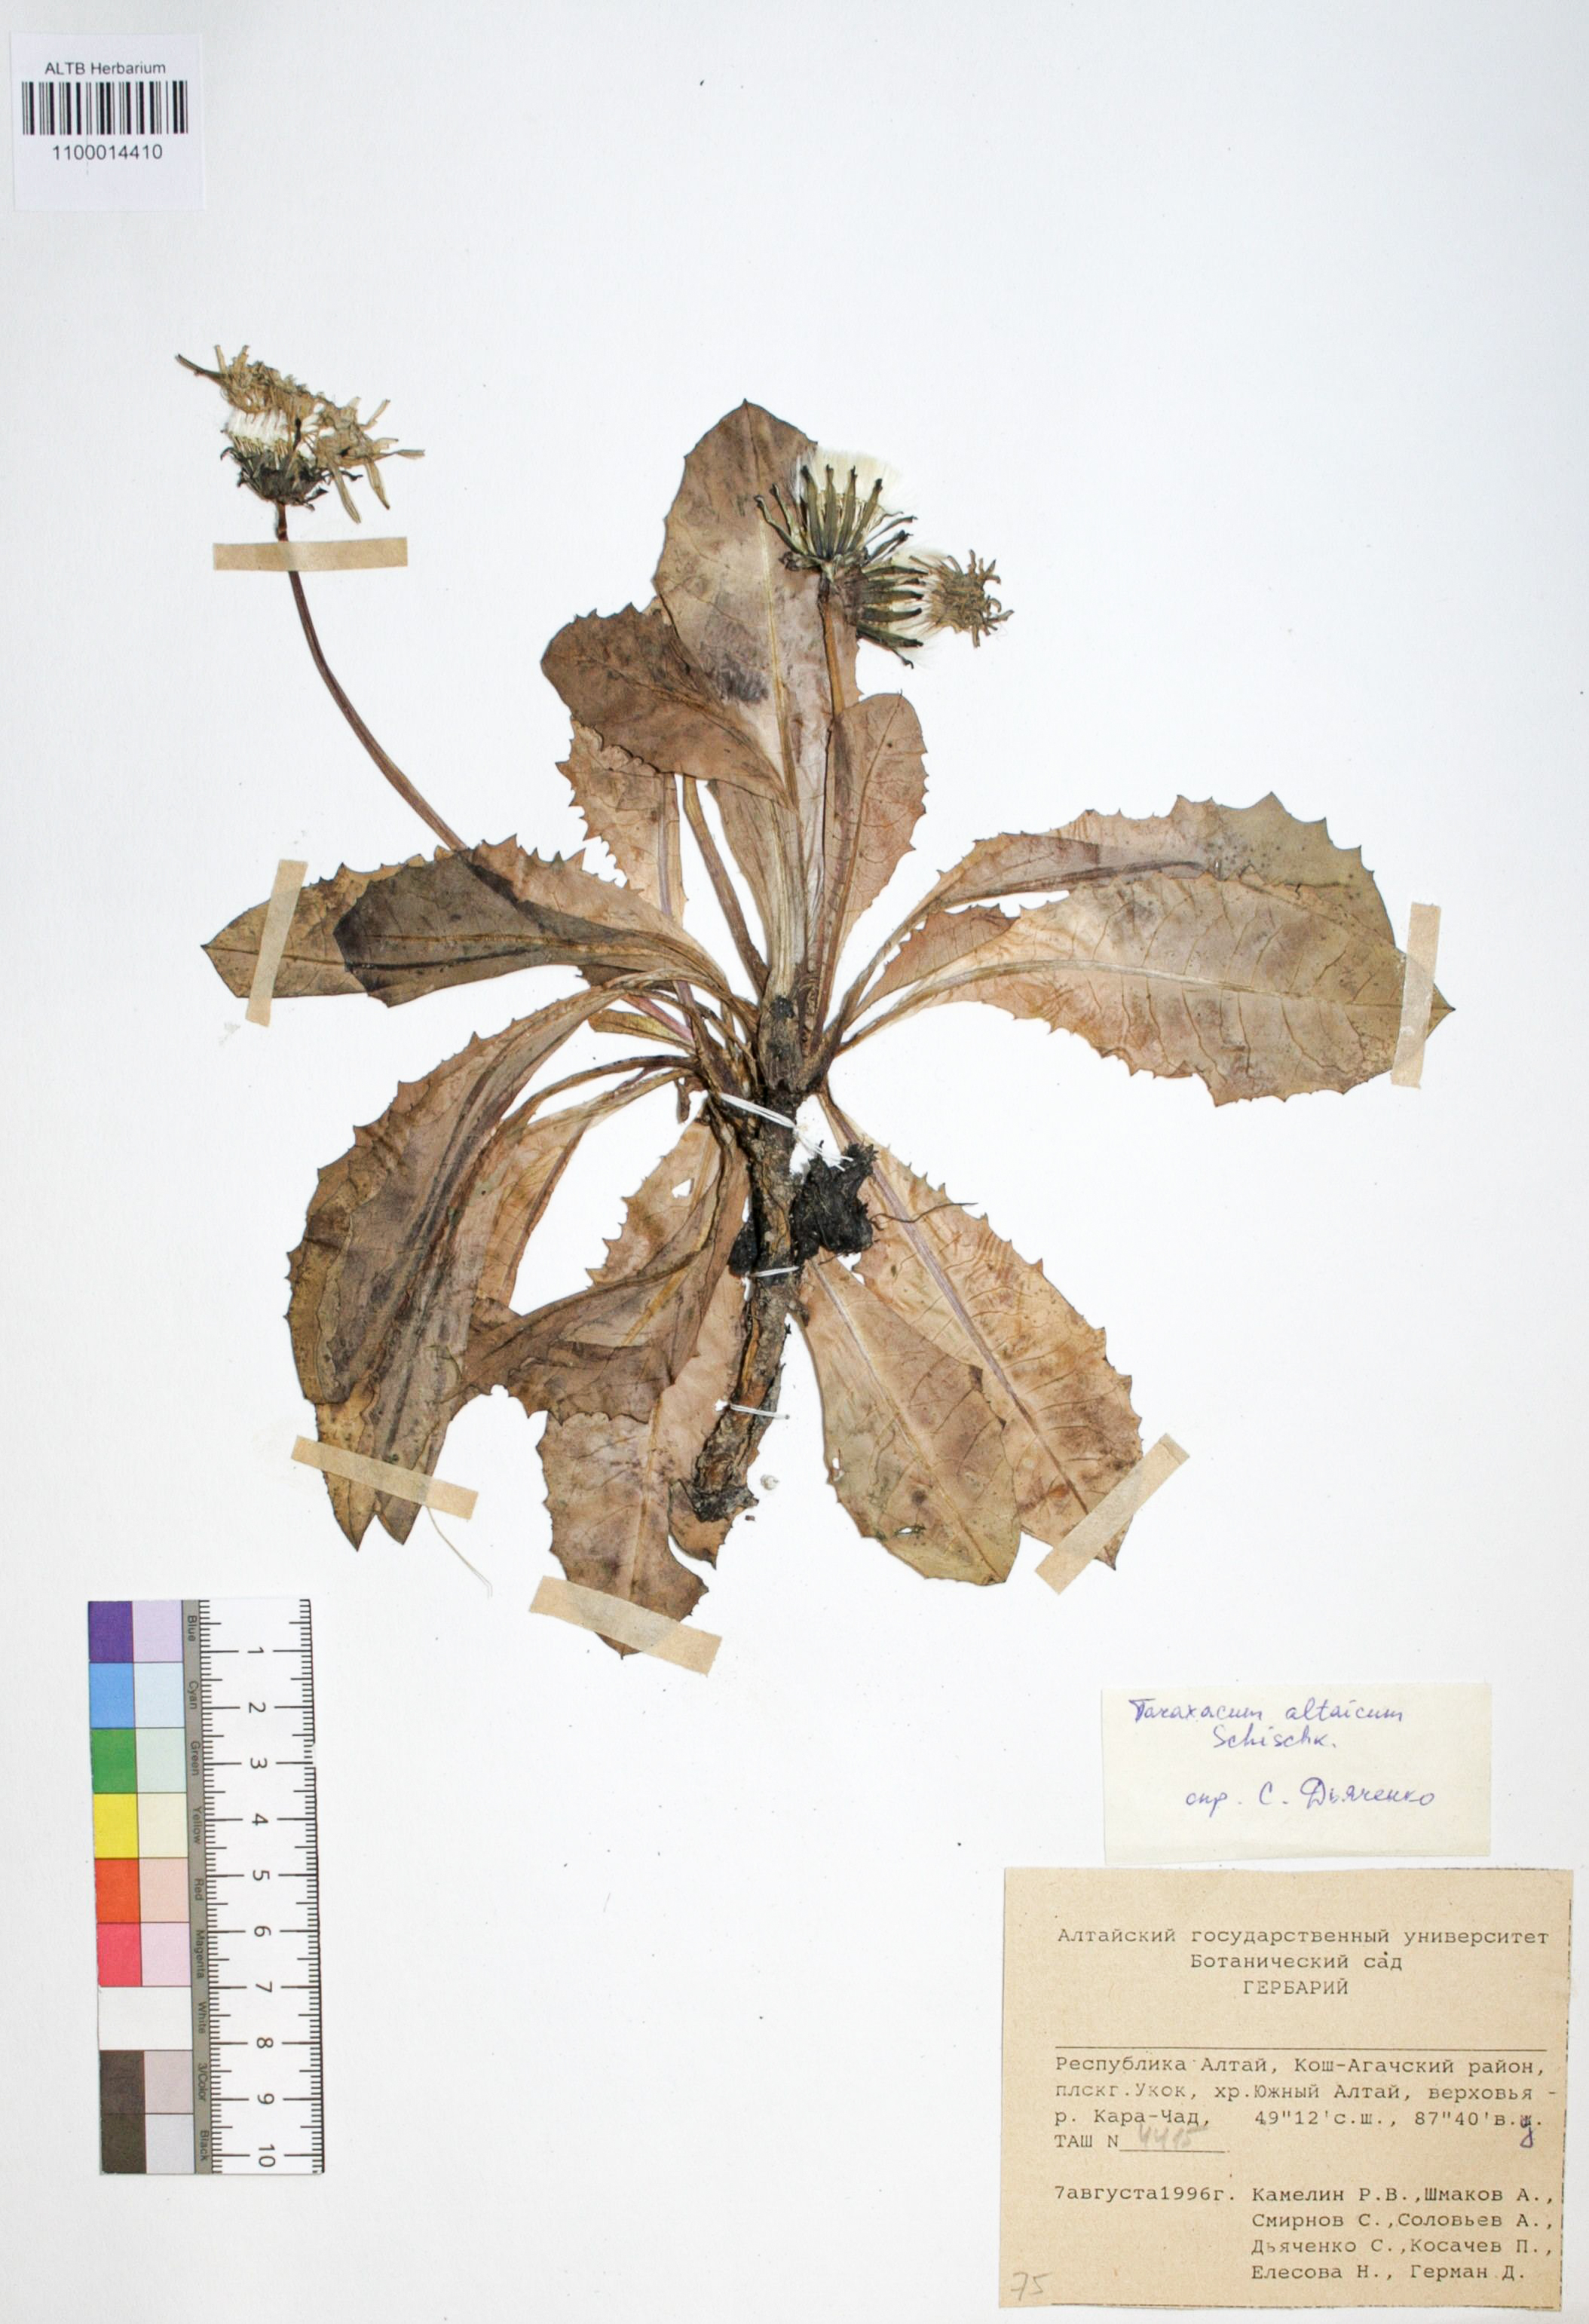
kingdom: Plantae
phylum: Tracheophyta
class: Magnoliopsida
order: Asterales
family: Asteraceae
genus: Taraxacum
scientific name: Taraxacum officinale
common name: Common dandelion
